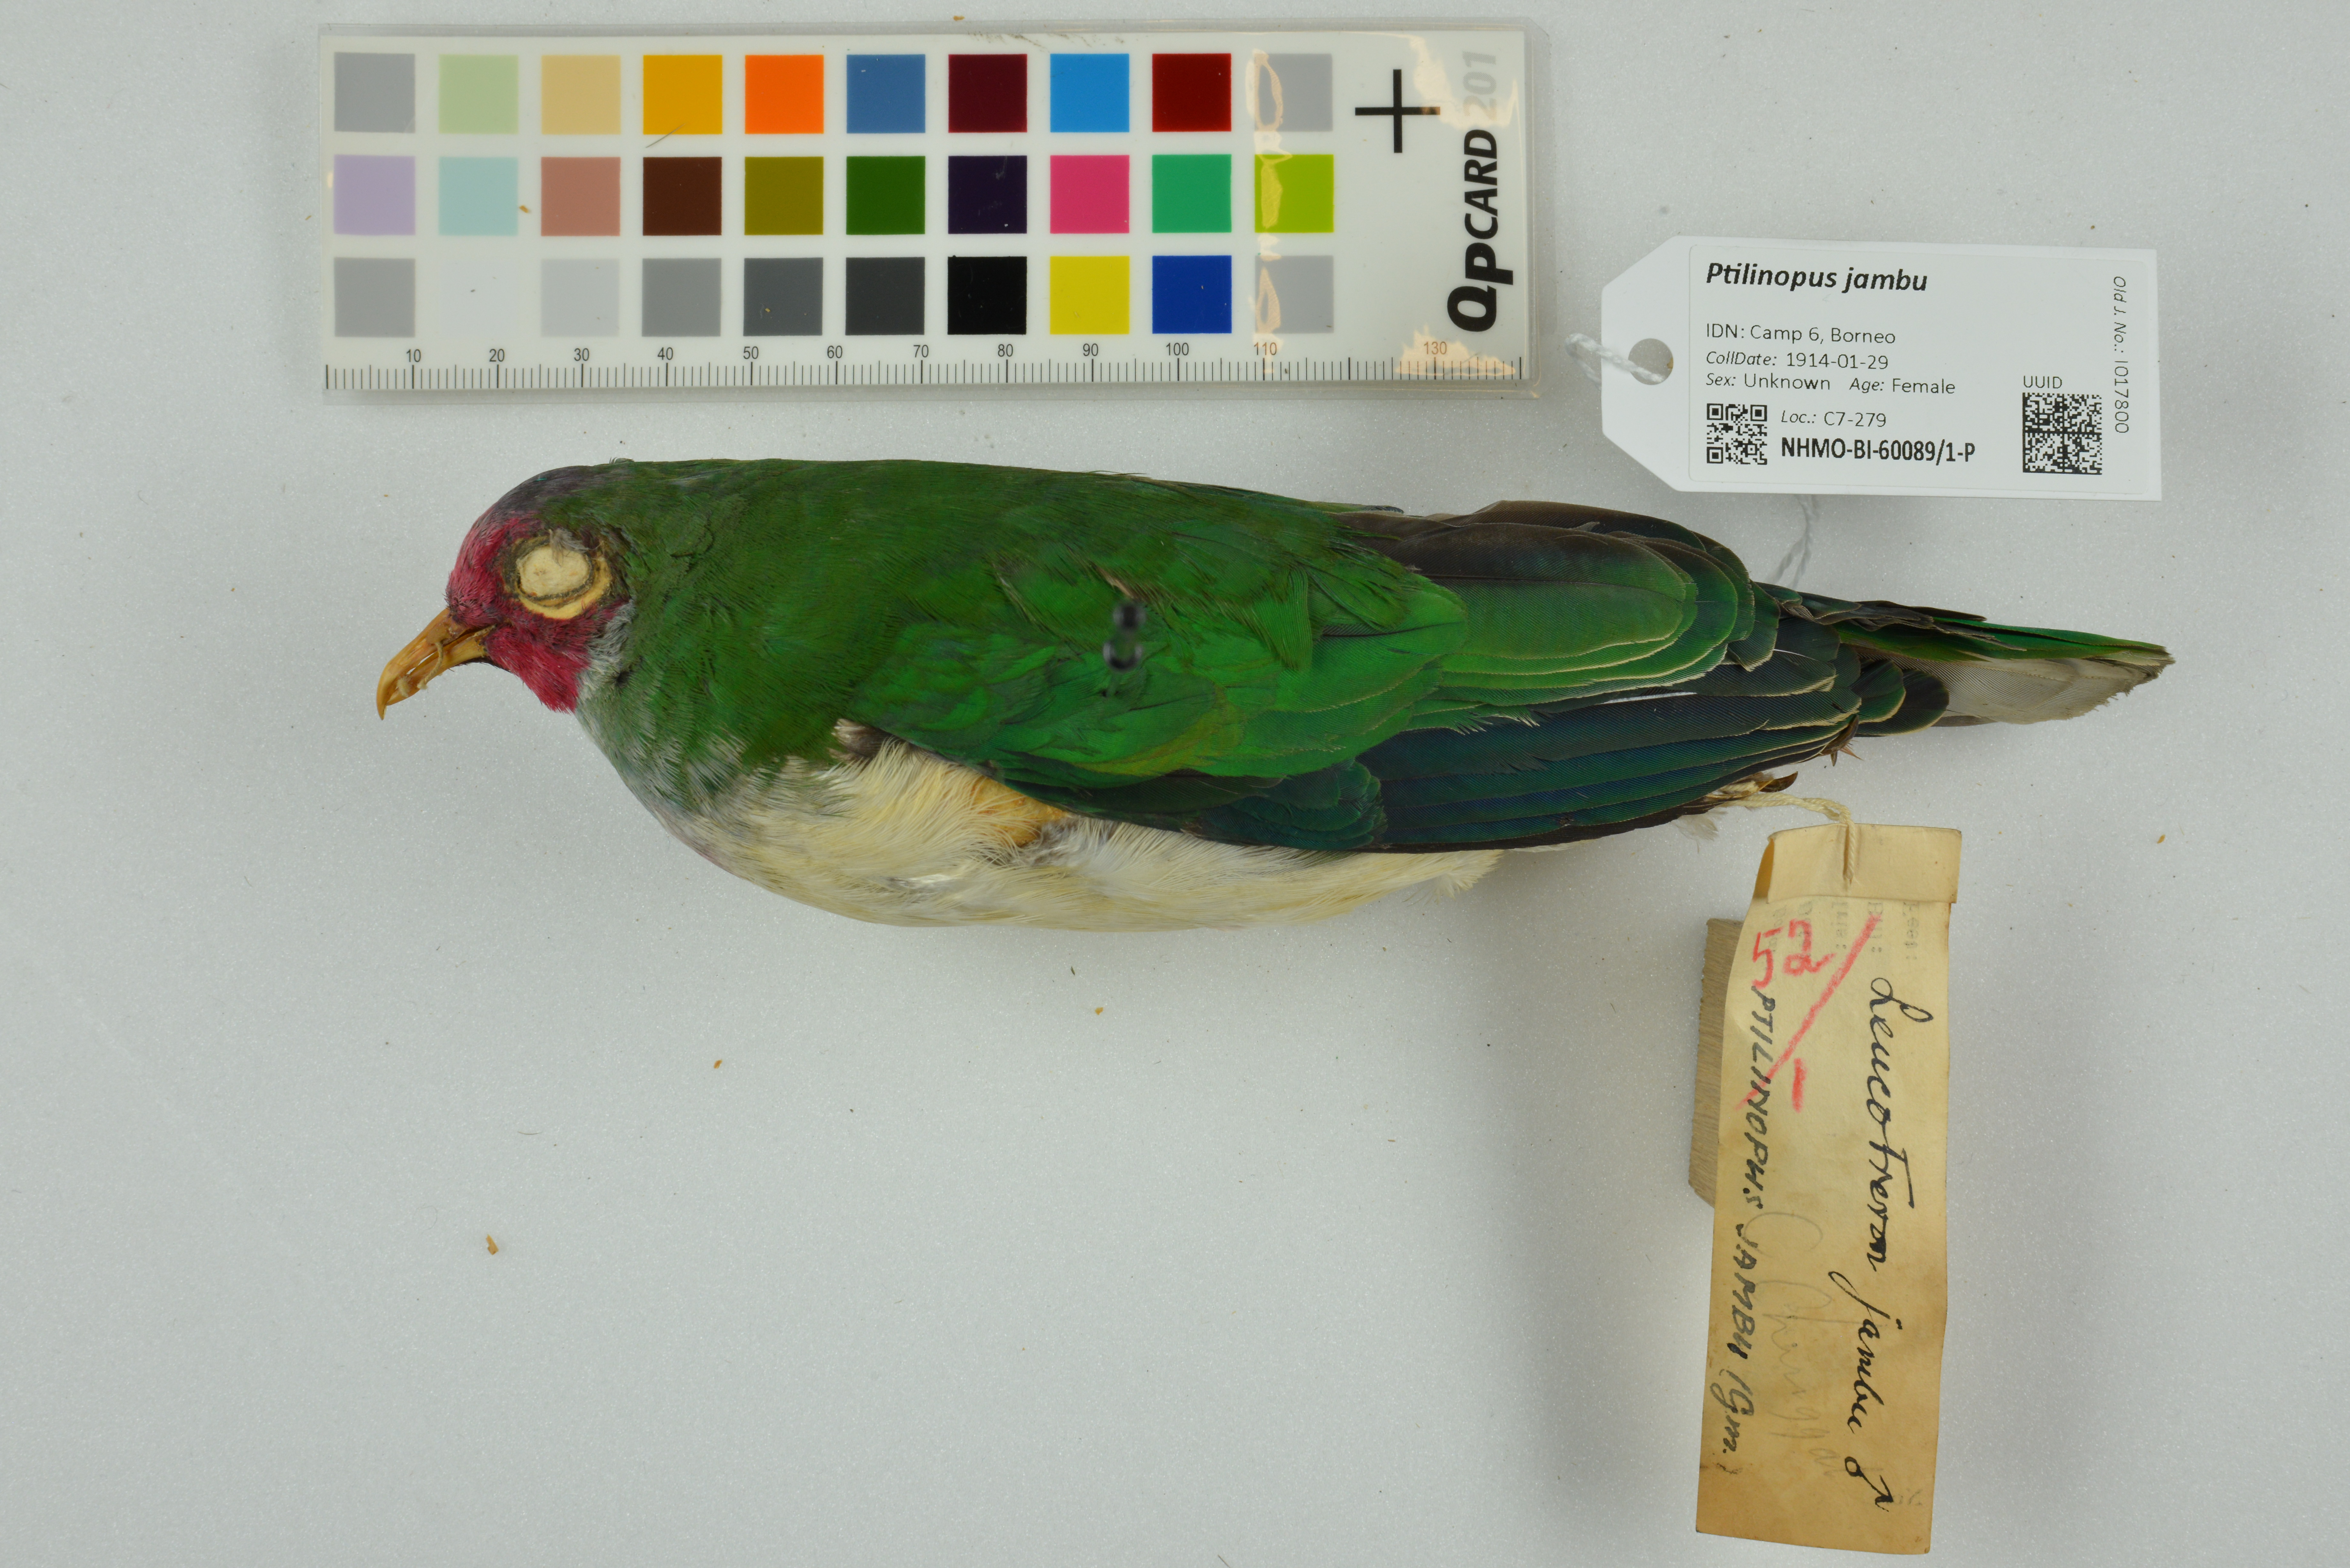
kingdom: Animalia
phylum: Chordata
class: Aves
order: Columbiformes
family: Columbidae
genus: Ptilinopus
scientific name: Ptilinopus jambu
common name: Jambu fruit dove
